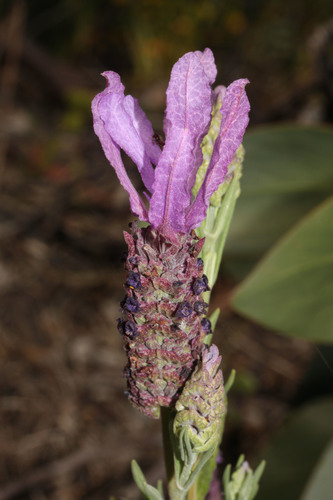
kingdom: Plantae
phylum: Tracheophyta
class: Magnoliopsida
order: Lamiales
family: Lamiaceae
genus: Lavandula
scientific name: Lavandula stoechas
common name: French lavender
